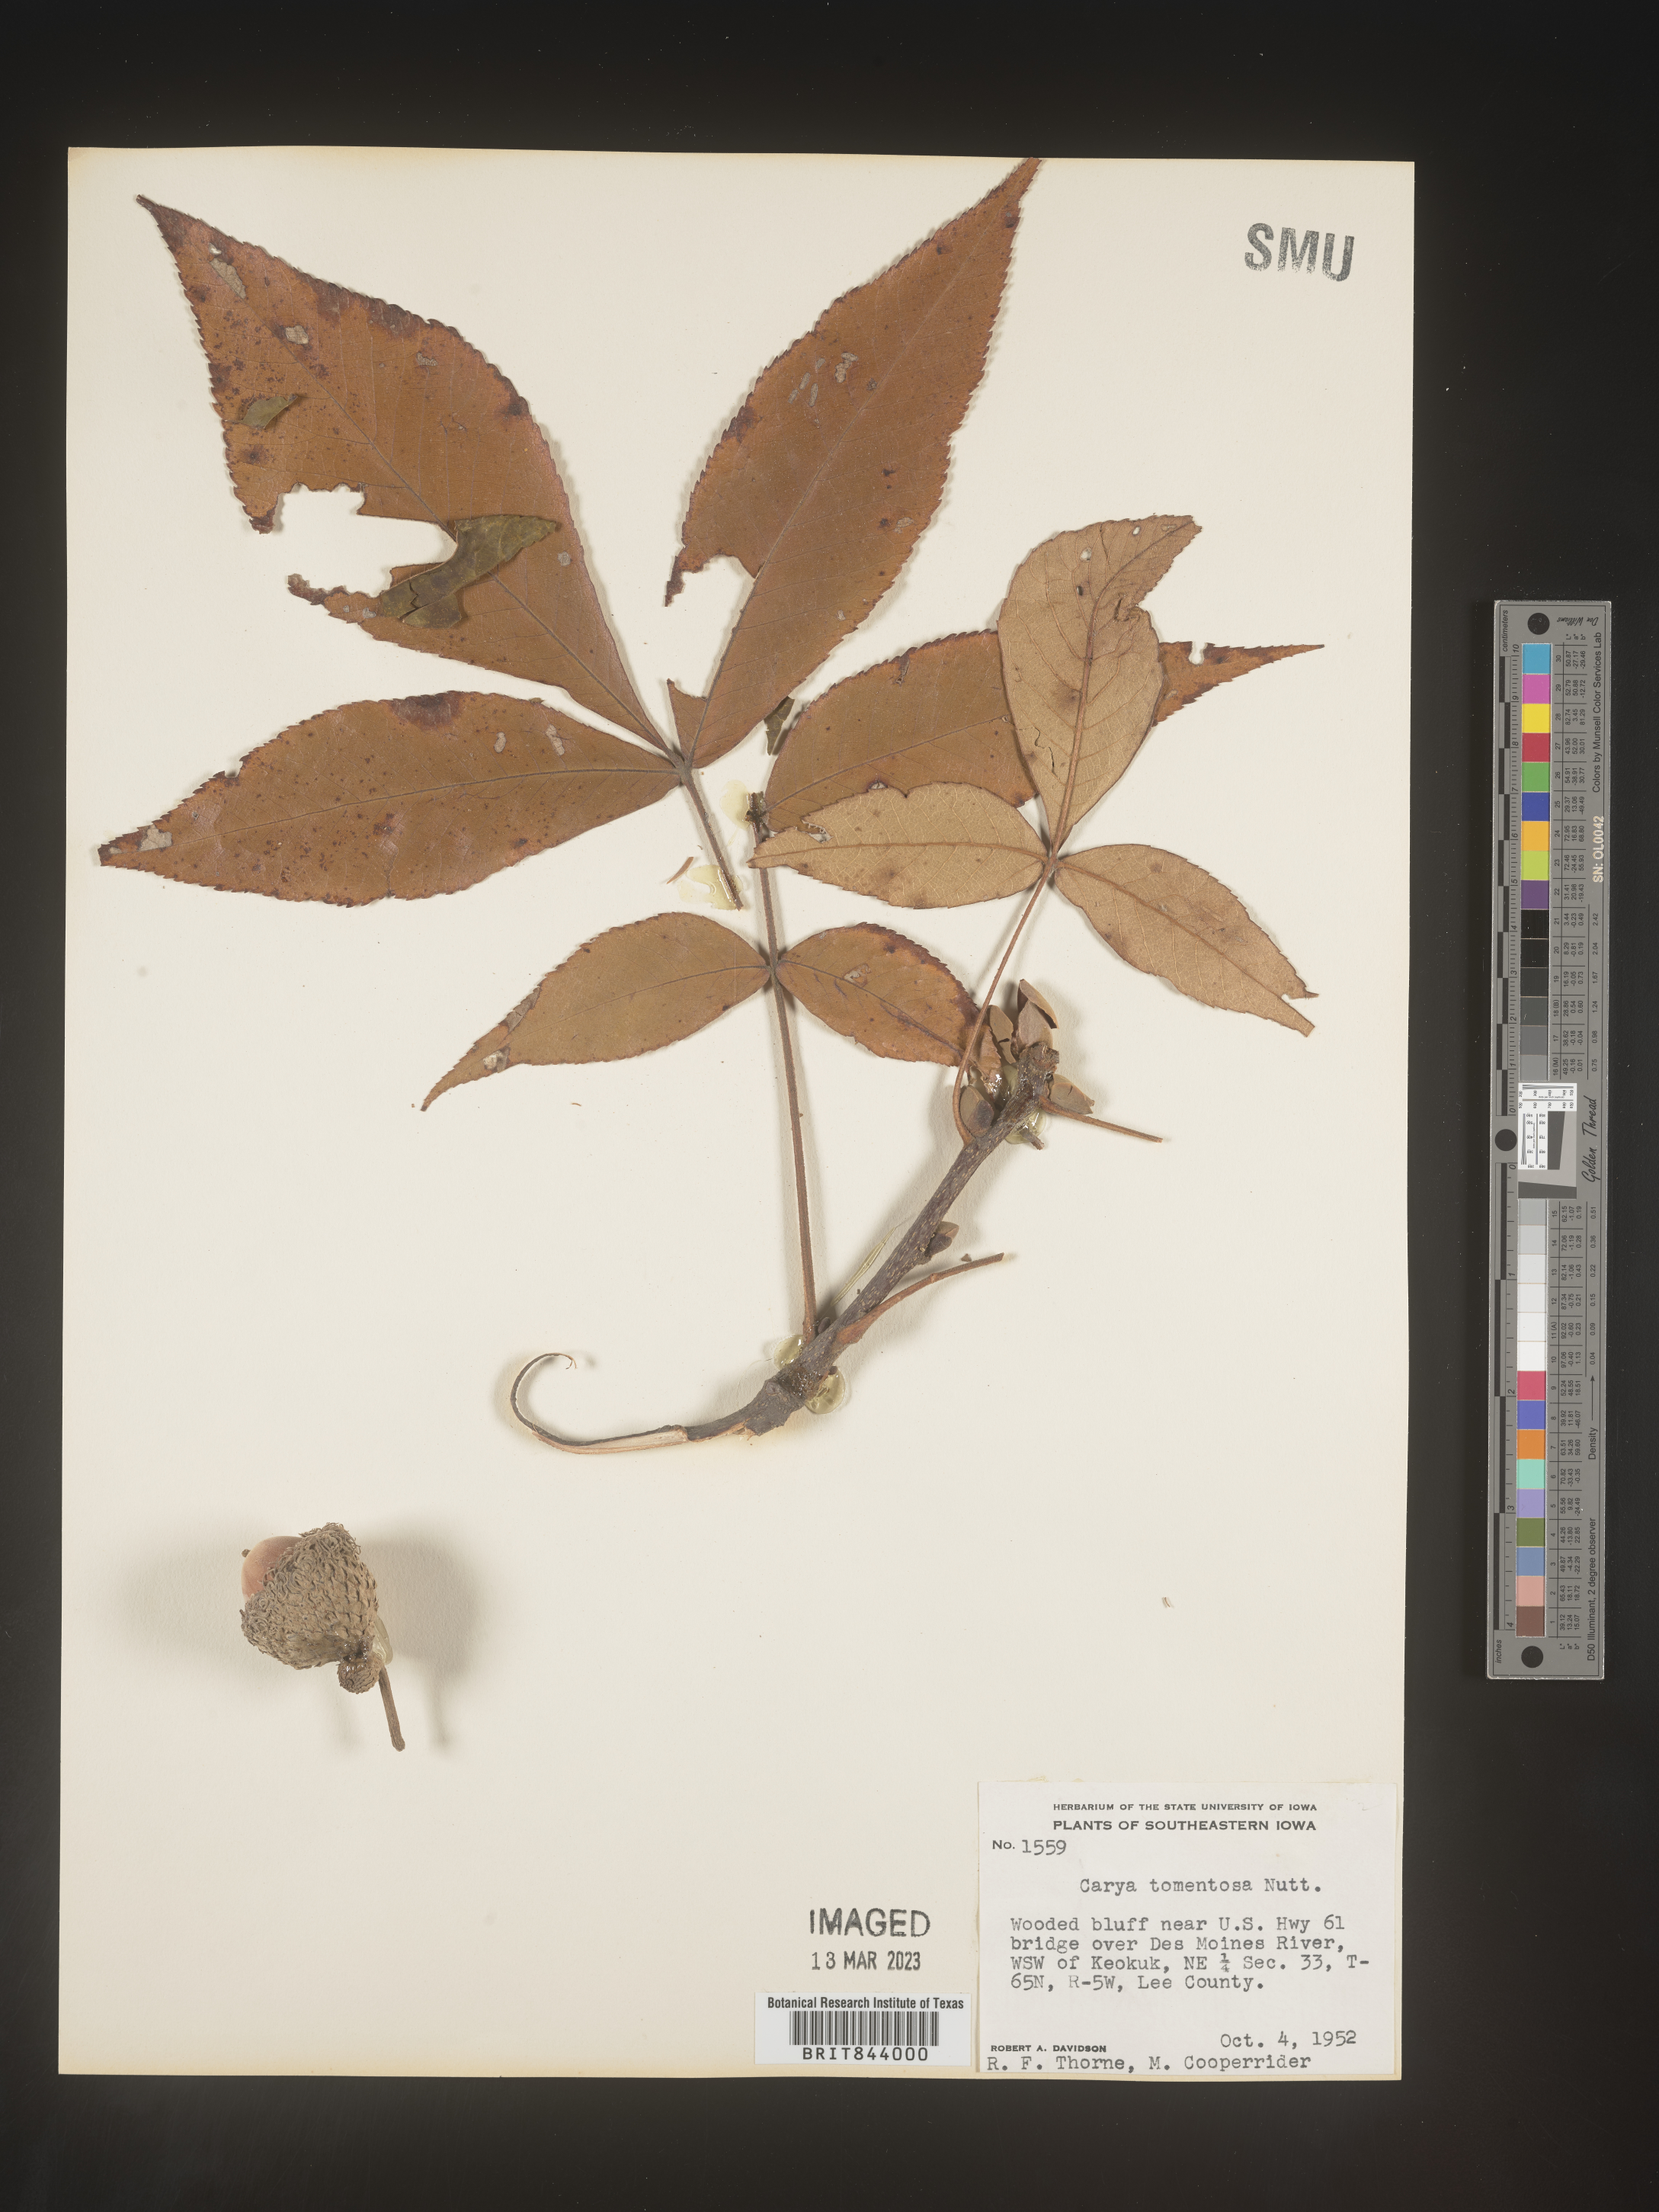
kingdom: Plantae
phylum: Tracheophyta
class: Magnoliopsida
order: Fagales
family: Juglandaceae
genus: Carya
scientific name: Carya alba
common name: Mockernut hickory
